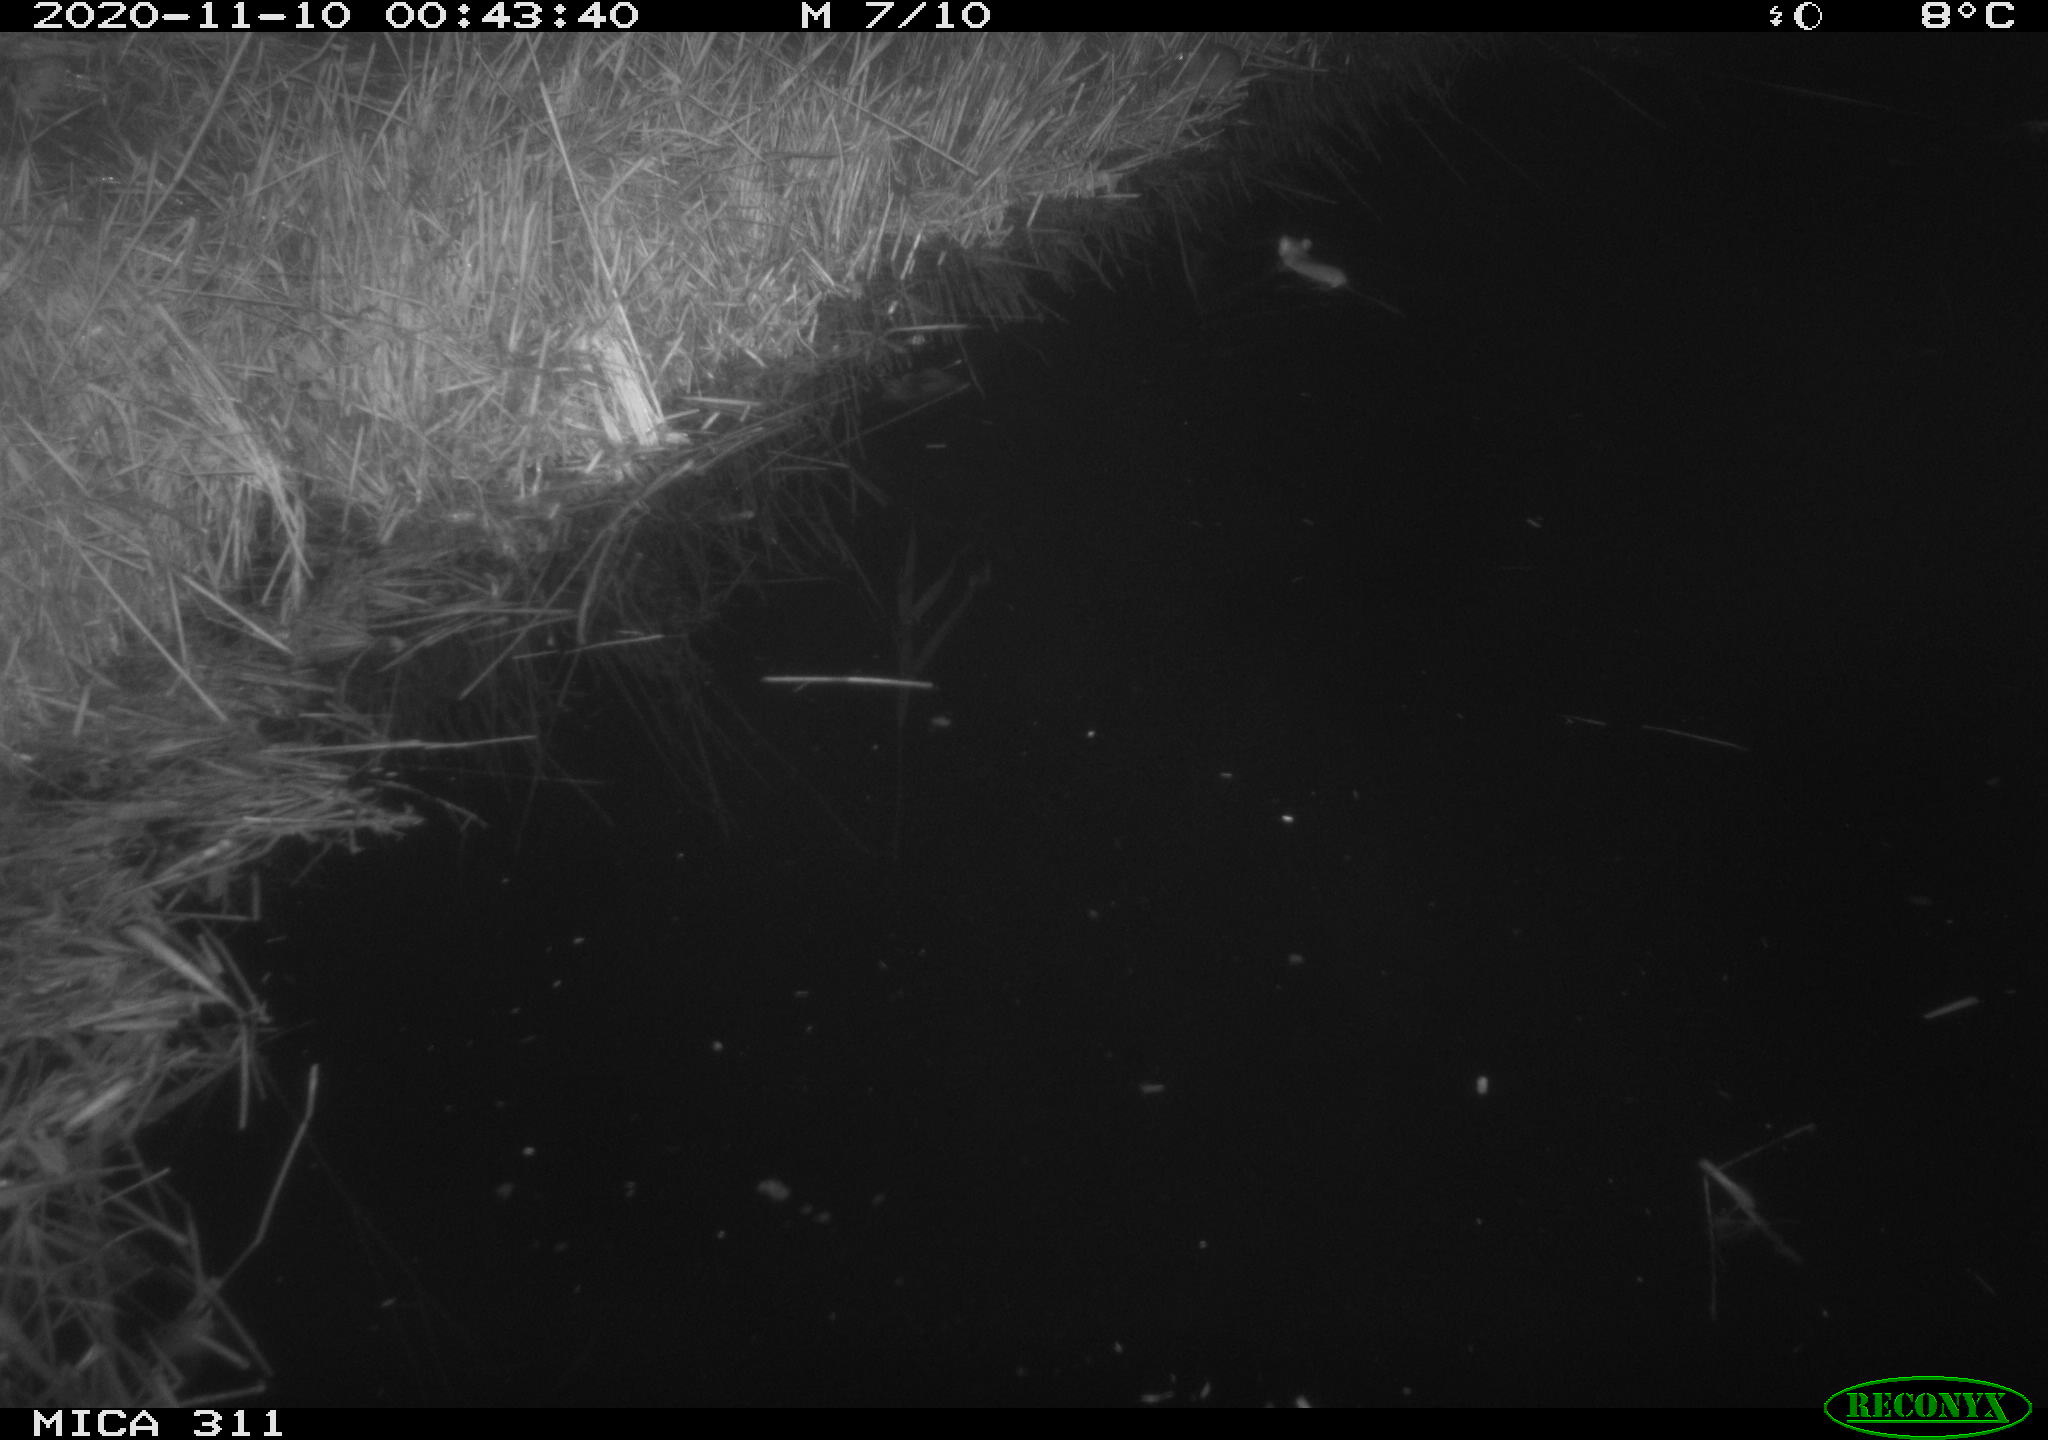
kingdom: Animalia
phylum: Chordata
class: Mammalia
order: Rodentia
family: Muridae
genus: Rattus
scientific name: Rattus norvegicus
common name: Brown rat
